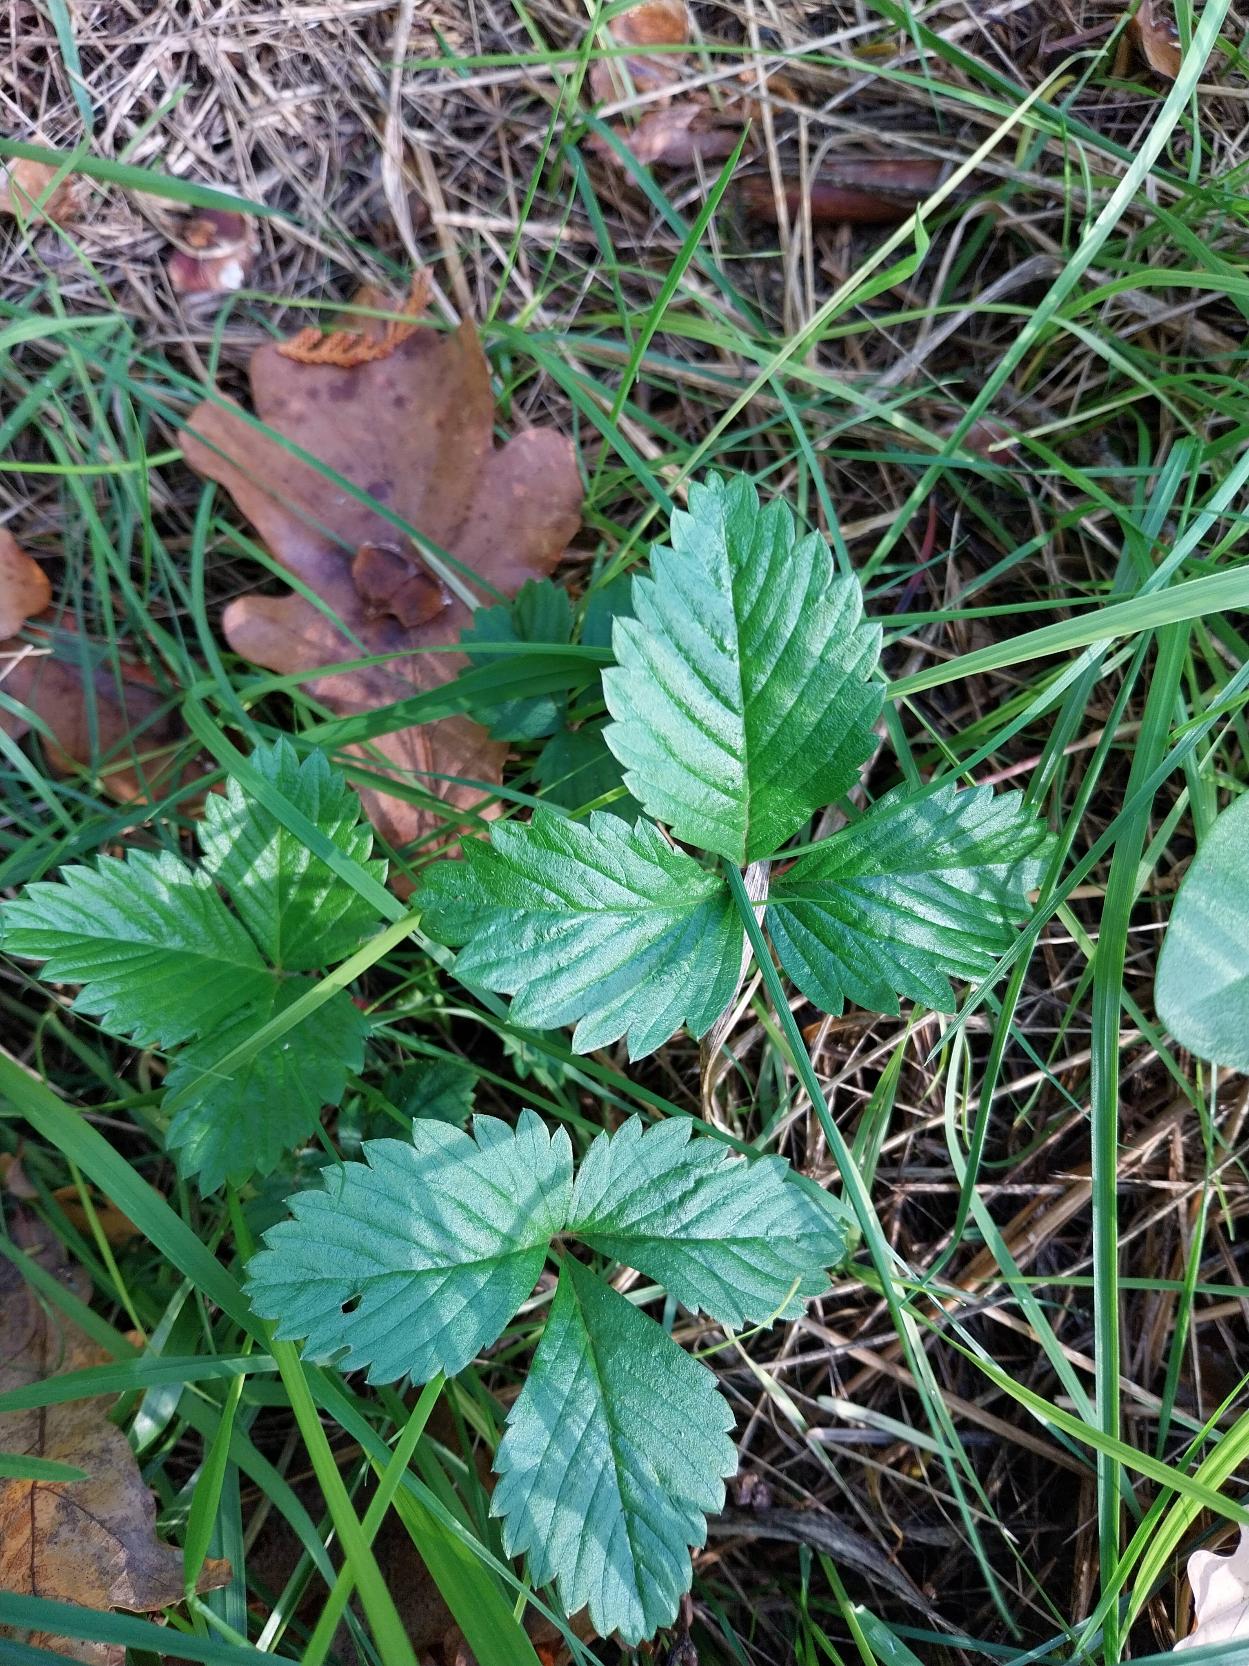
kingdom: Plantae
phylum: Tracheophyta
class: Magnoliopsida
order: Rosales
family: Rosaceae
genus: Fragaria
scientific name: Fragaria vesca
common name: Skov-jordbær
